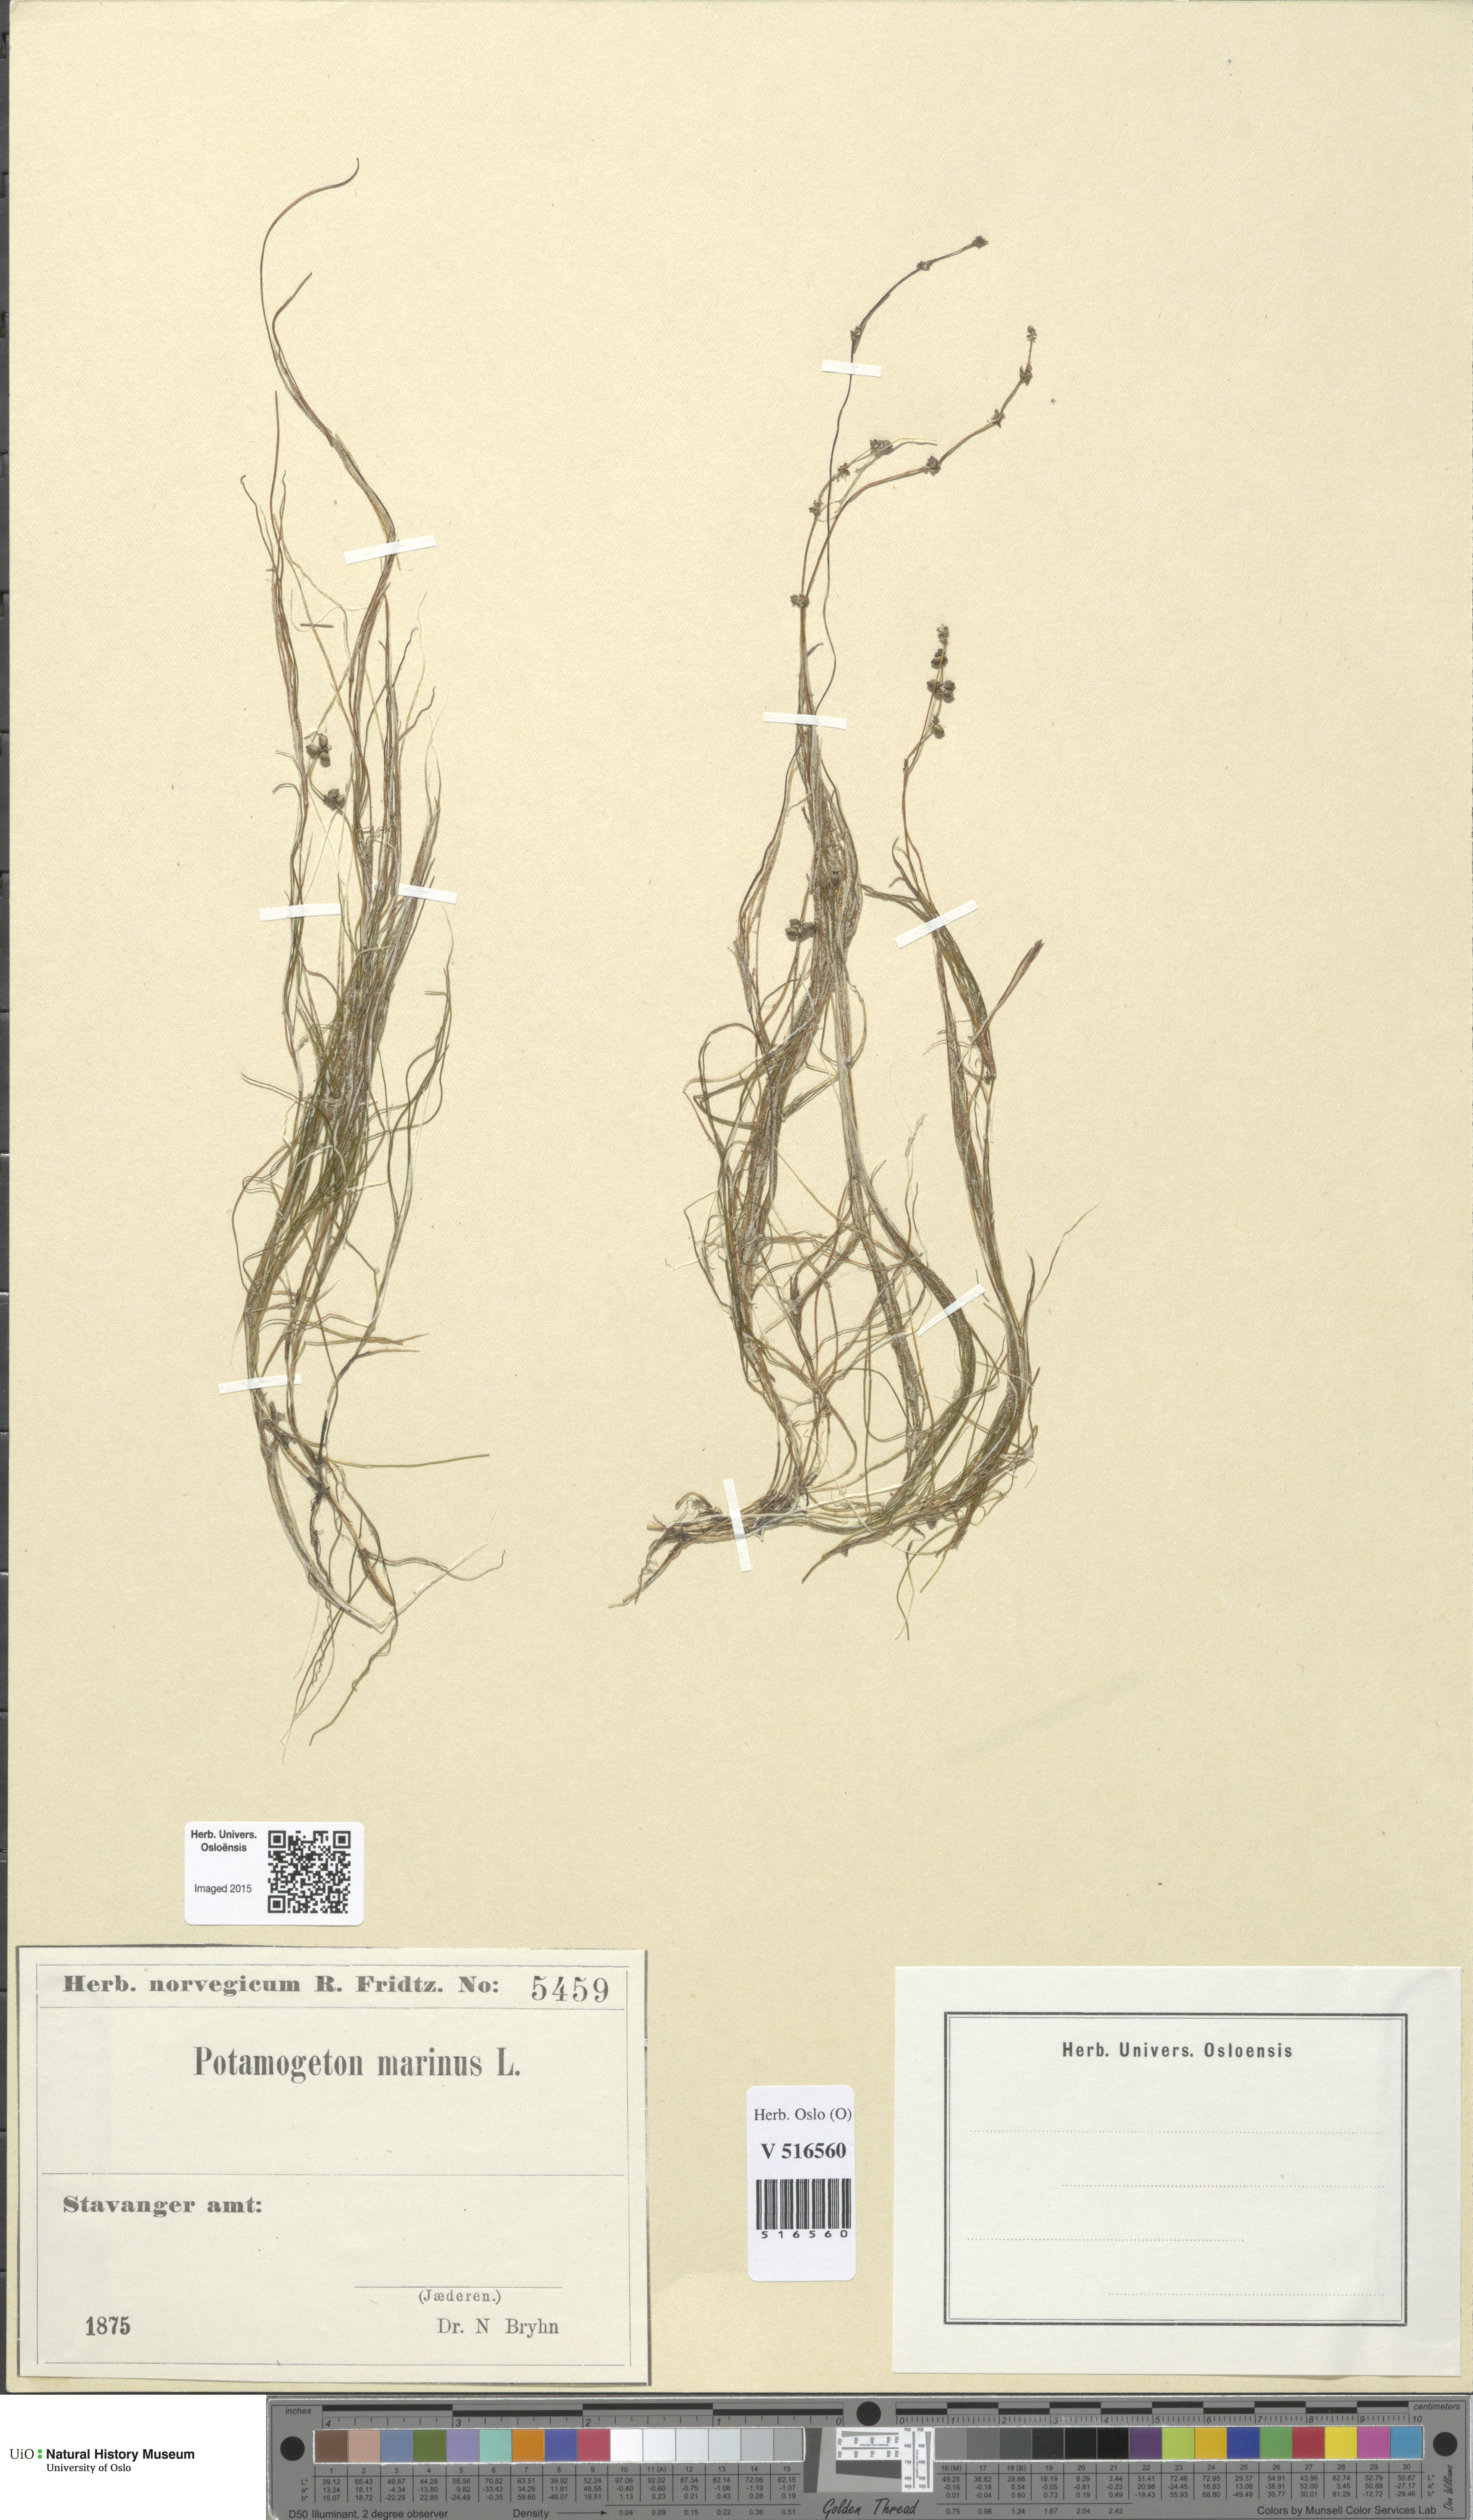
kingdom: Plantae
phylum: Tracheophyta
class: Liliopsida
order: Alismatales
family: Potamogetonaceae
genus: Stuckenia
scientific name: Stuckenia filiformis
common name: Alpine thread-leaved pondweed
